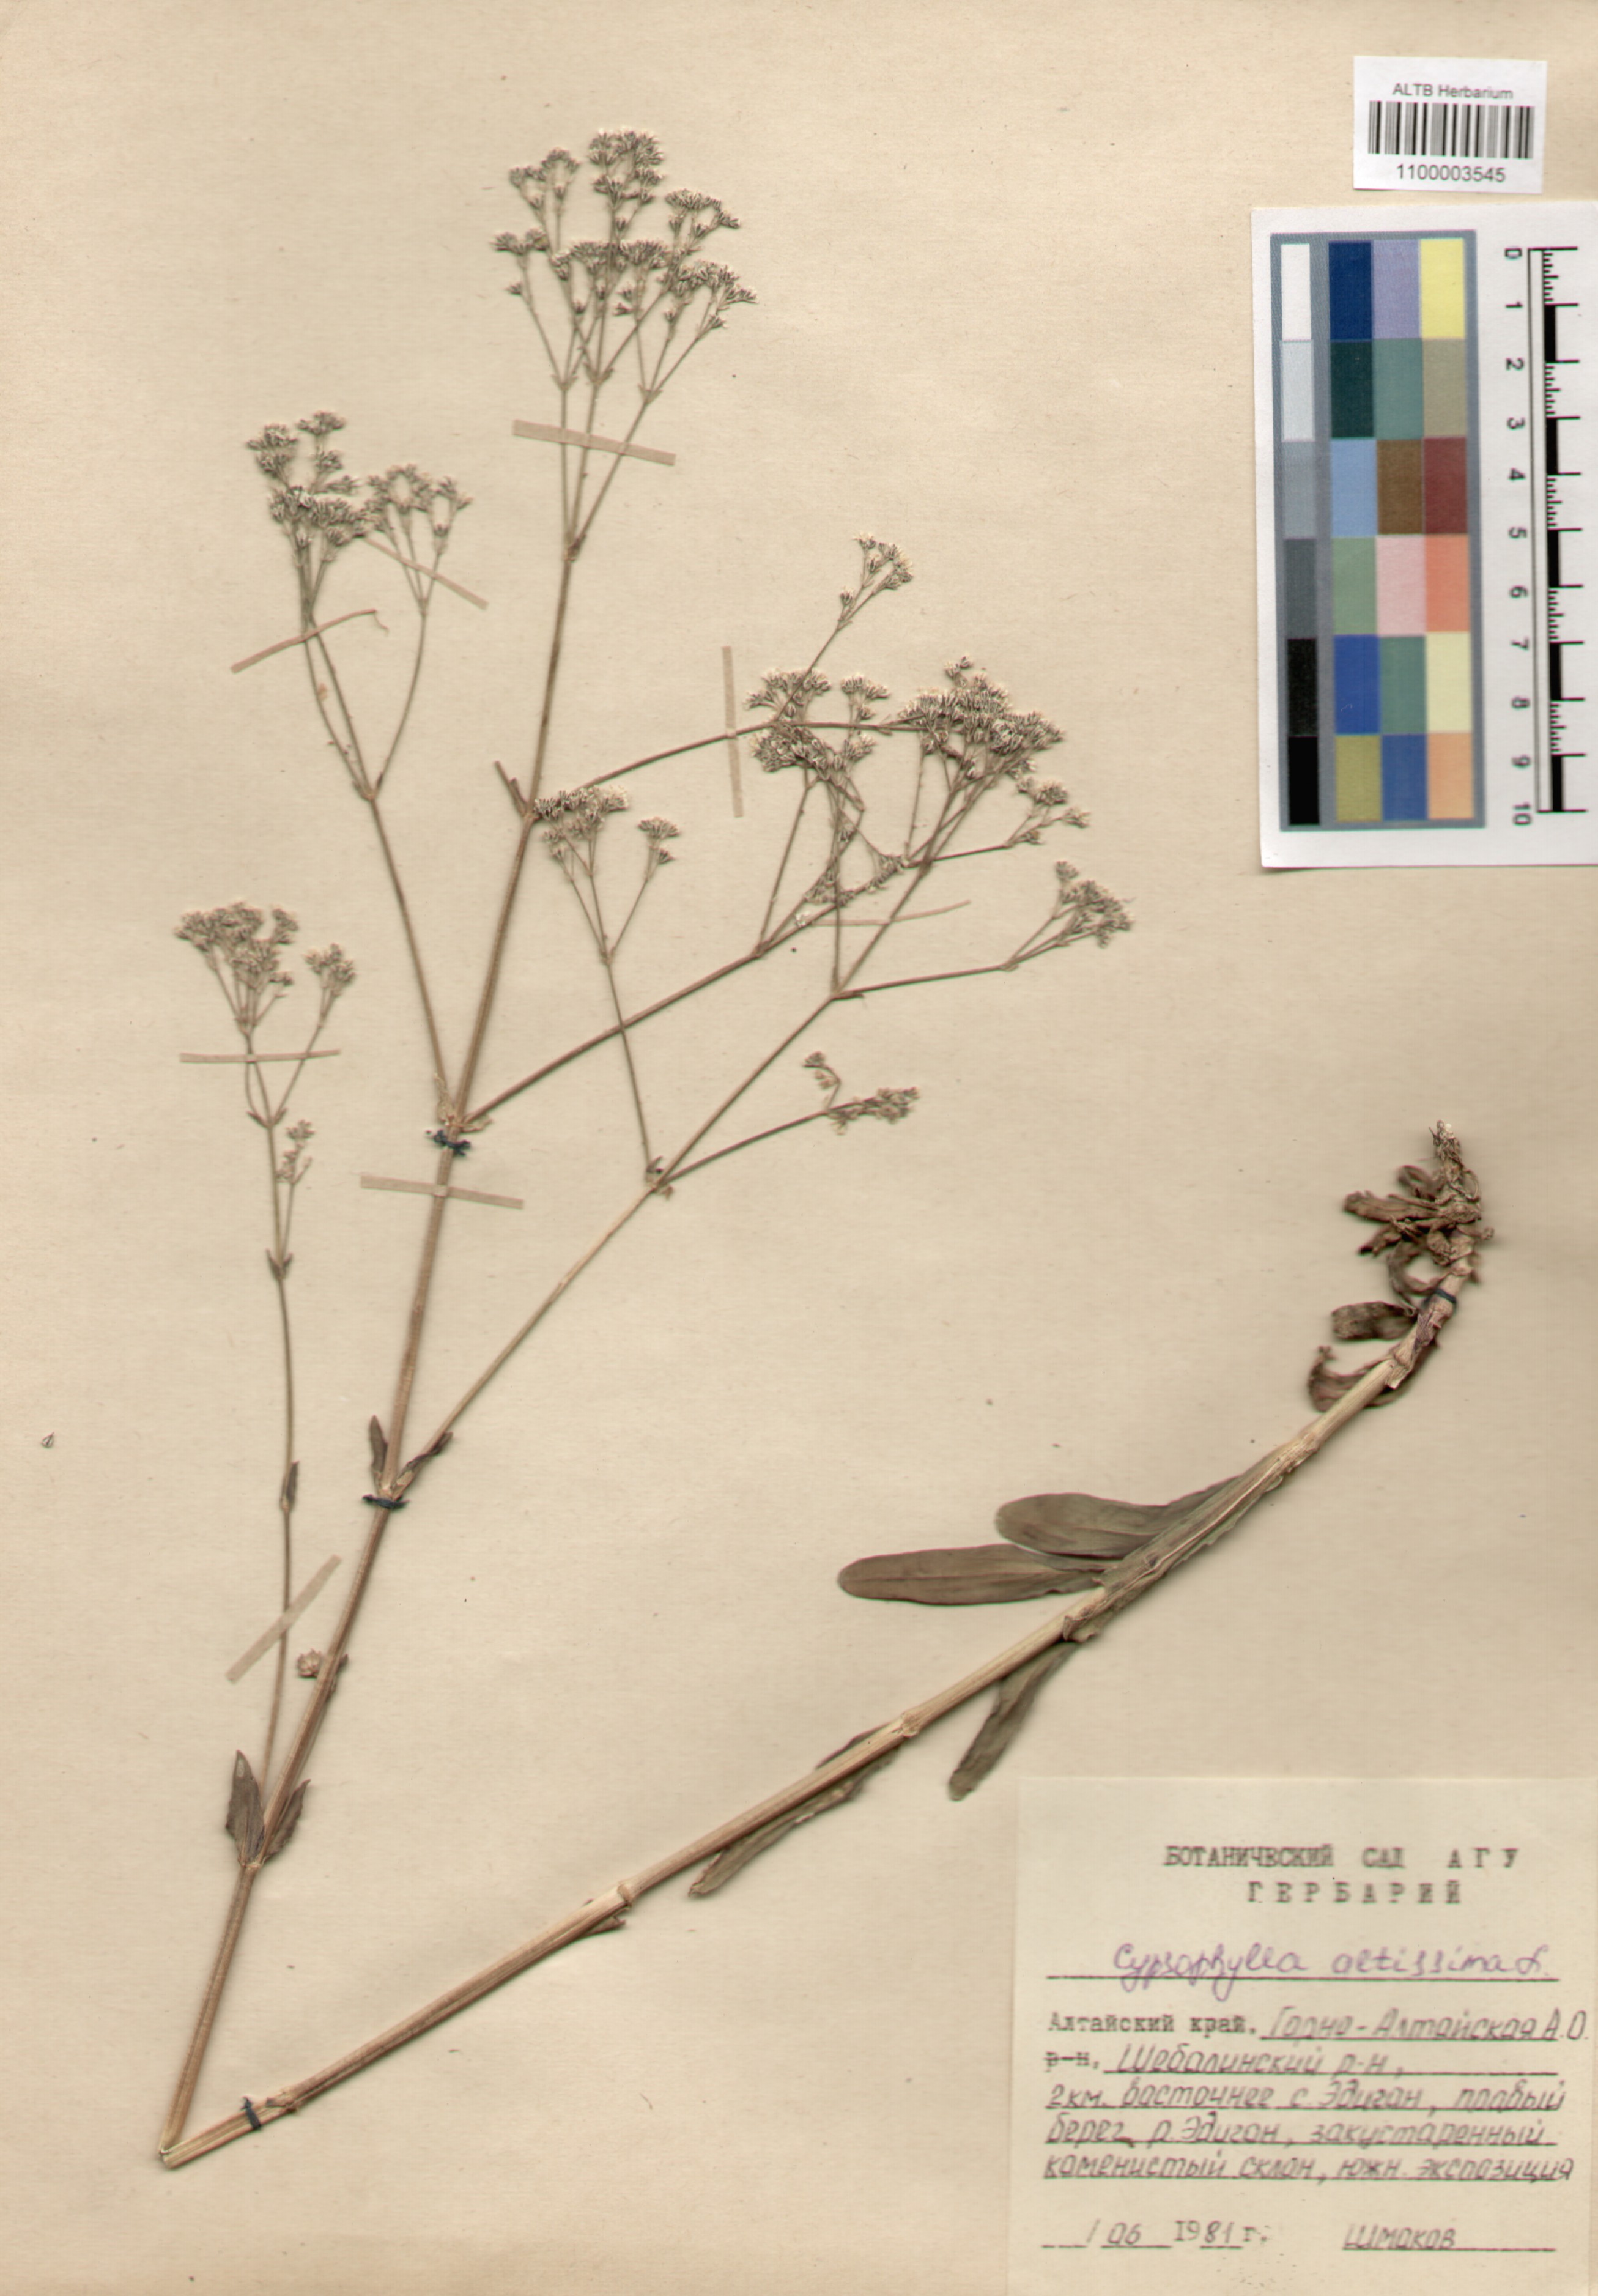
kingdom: Plantae
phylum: Tracheophyta
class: Magnoliopsida
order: Caryophyllales
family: Caryophyllaceae
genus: Gypsophila
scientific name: Gypsophila altissima
